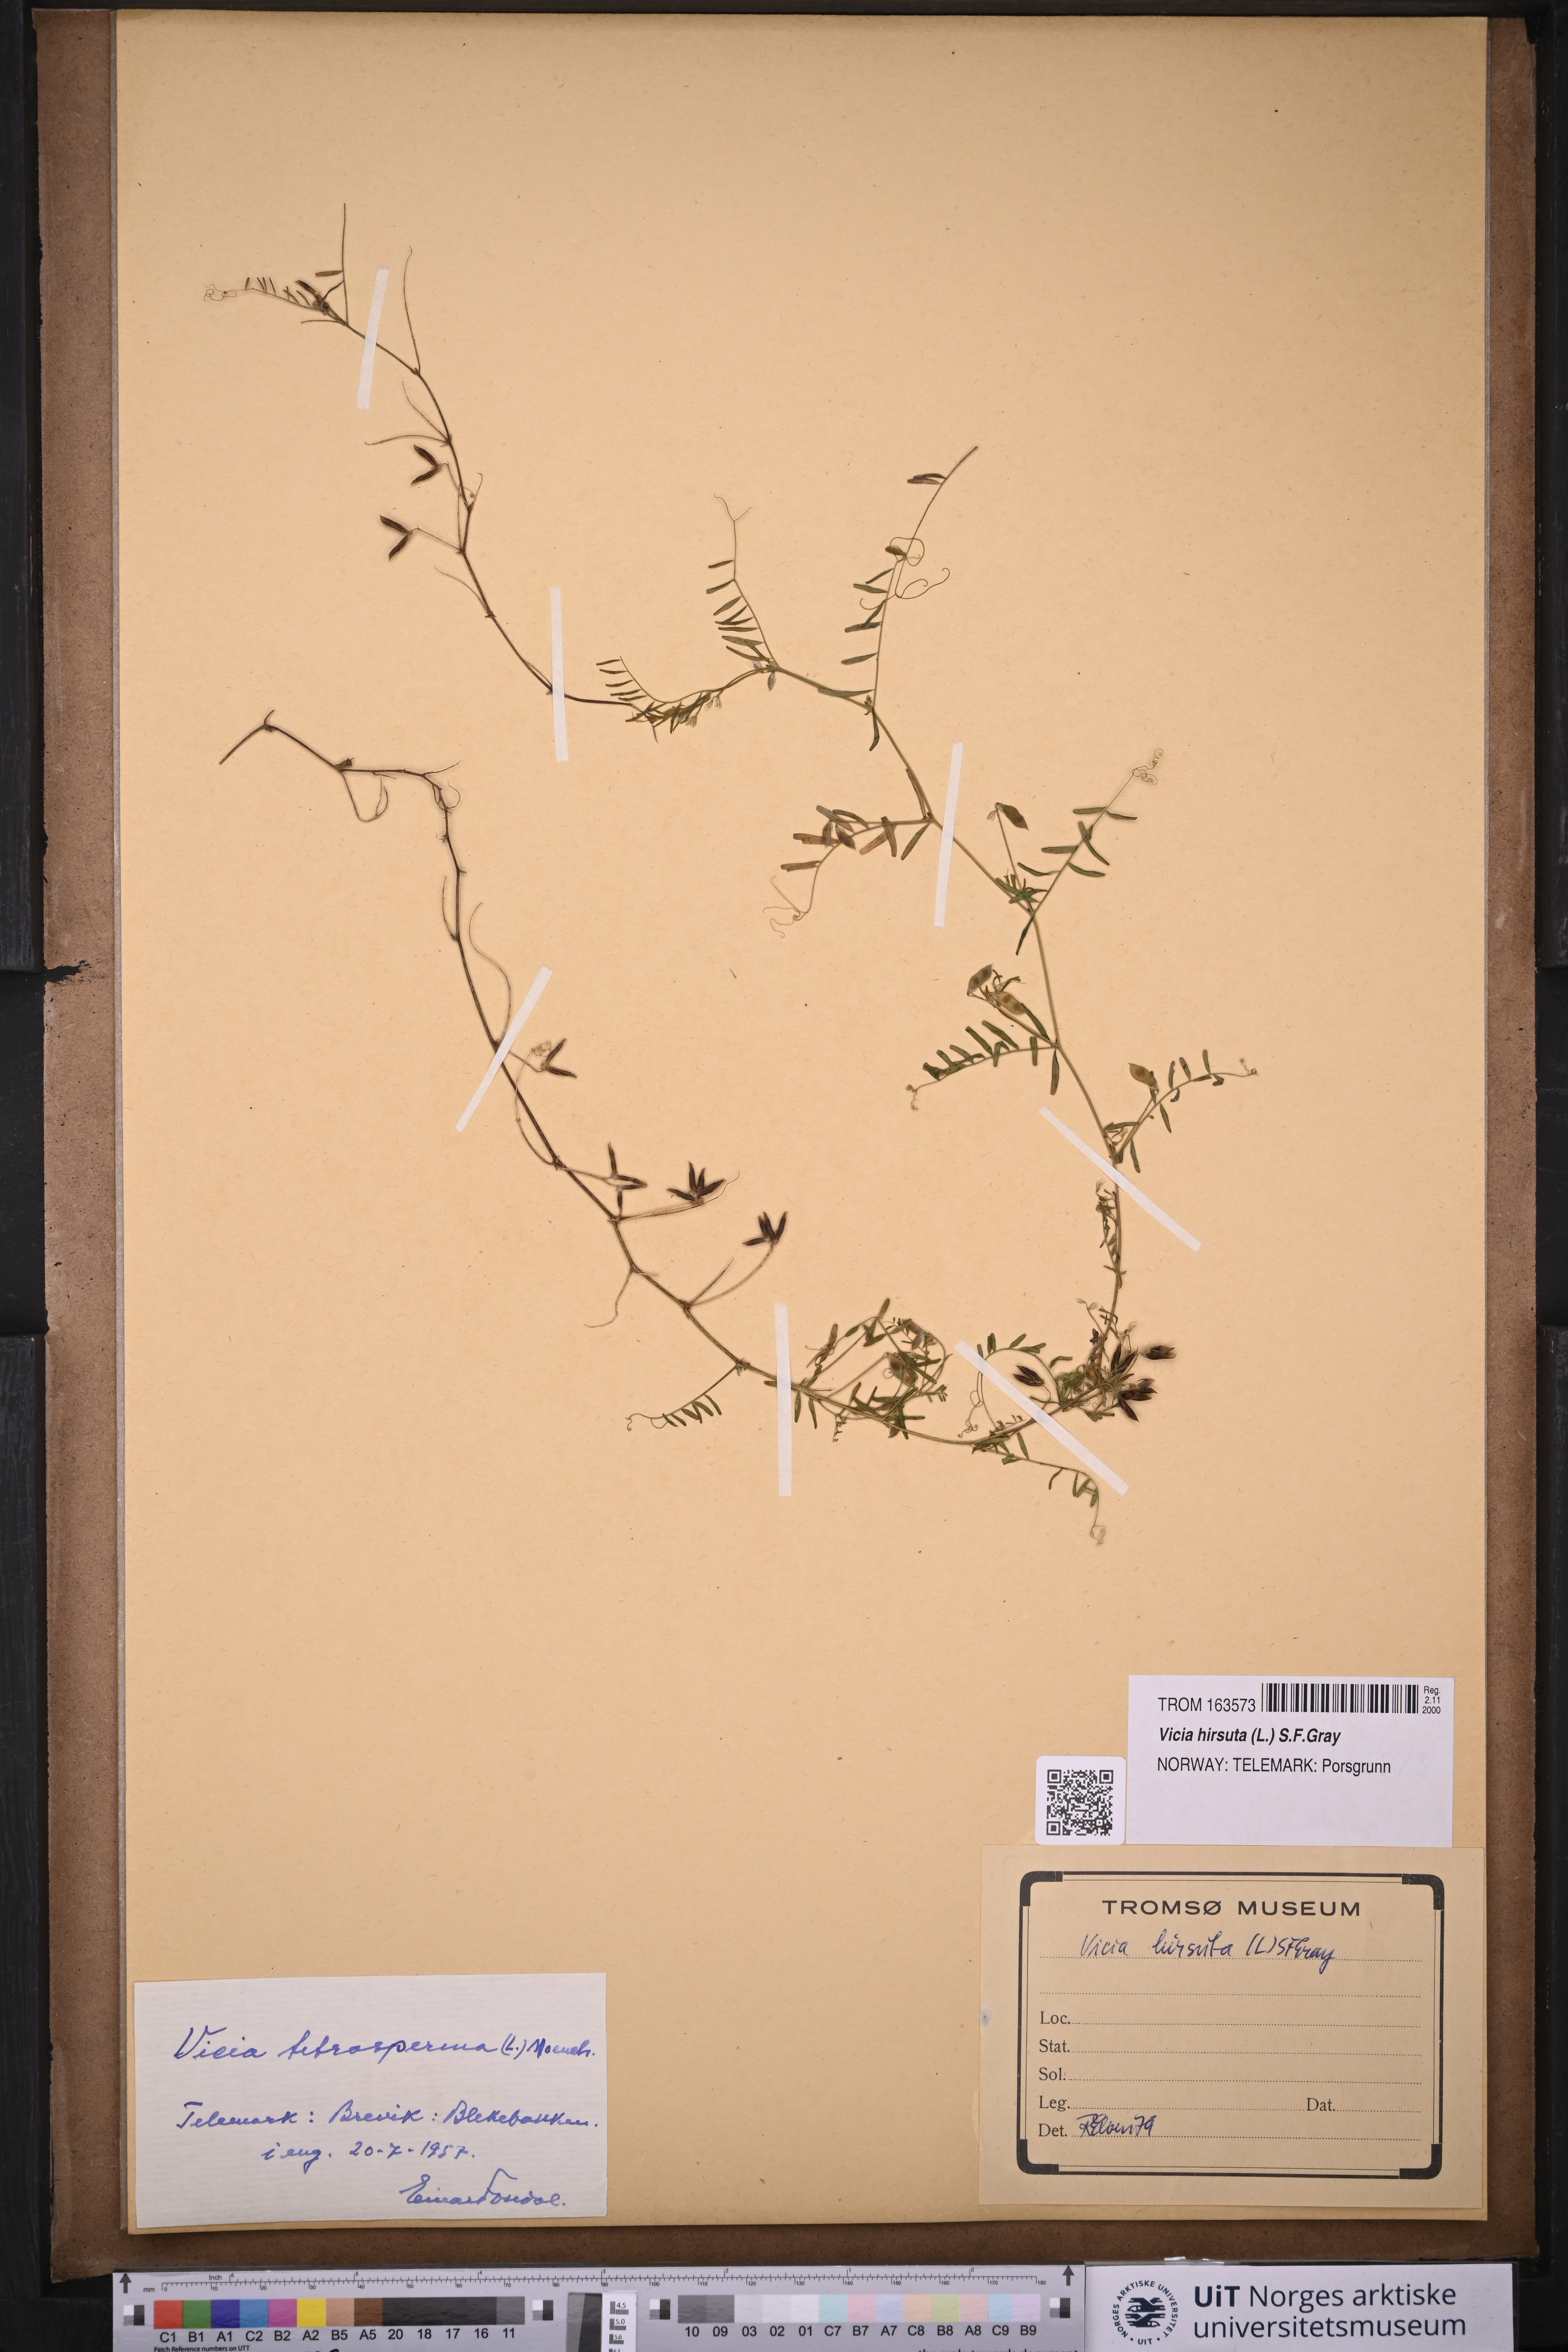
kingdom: Plantae
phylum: Tracheophyta
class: Magnoliopsida
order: Fabales
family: Fabaceae
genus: Vicia
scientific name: Vicia hirsuta
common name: Tiny vetch
